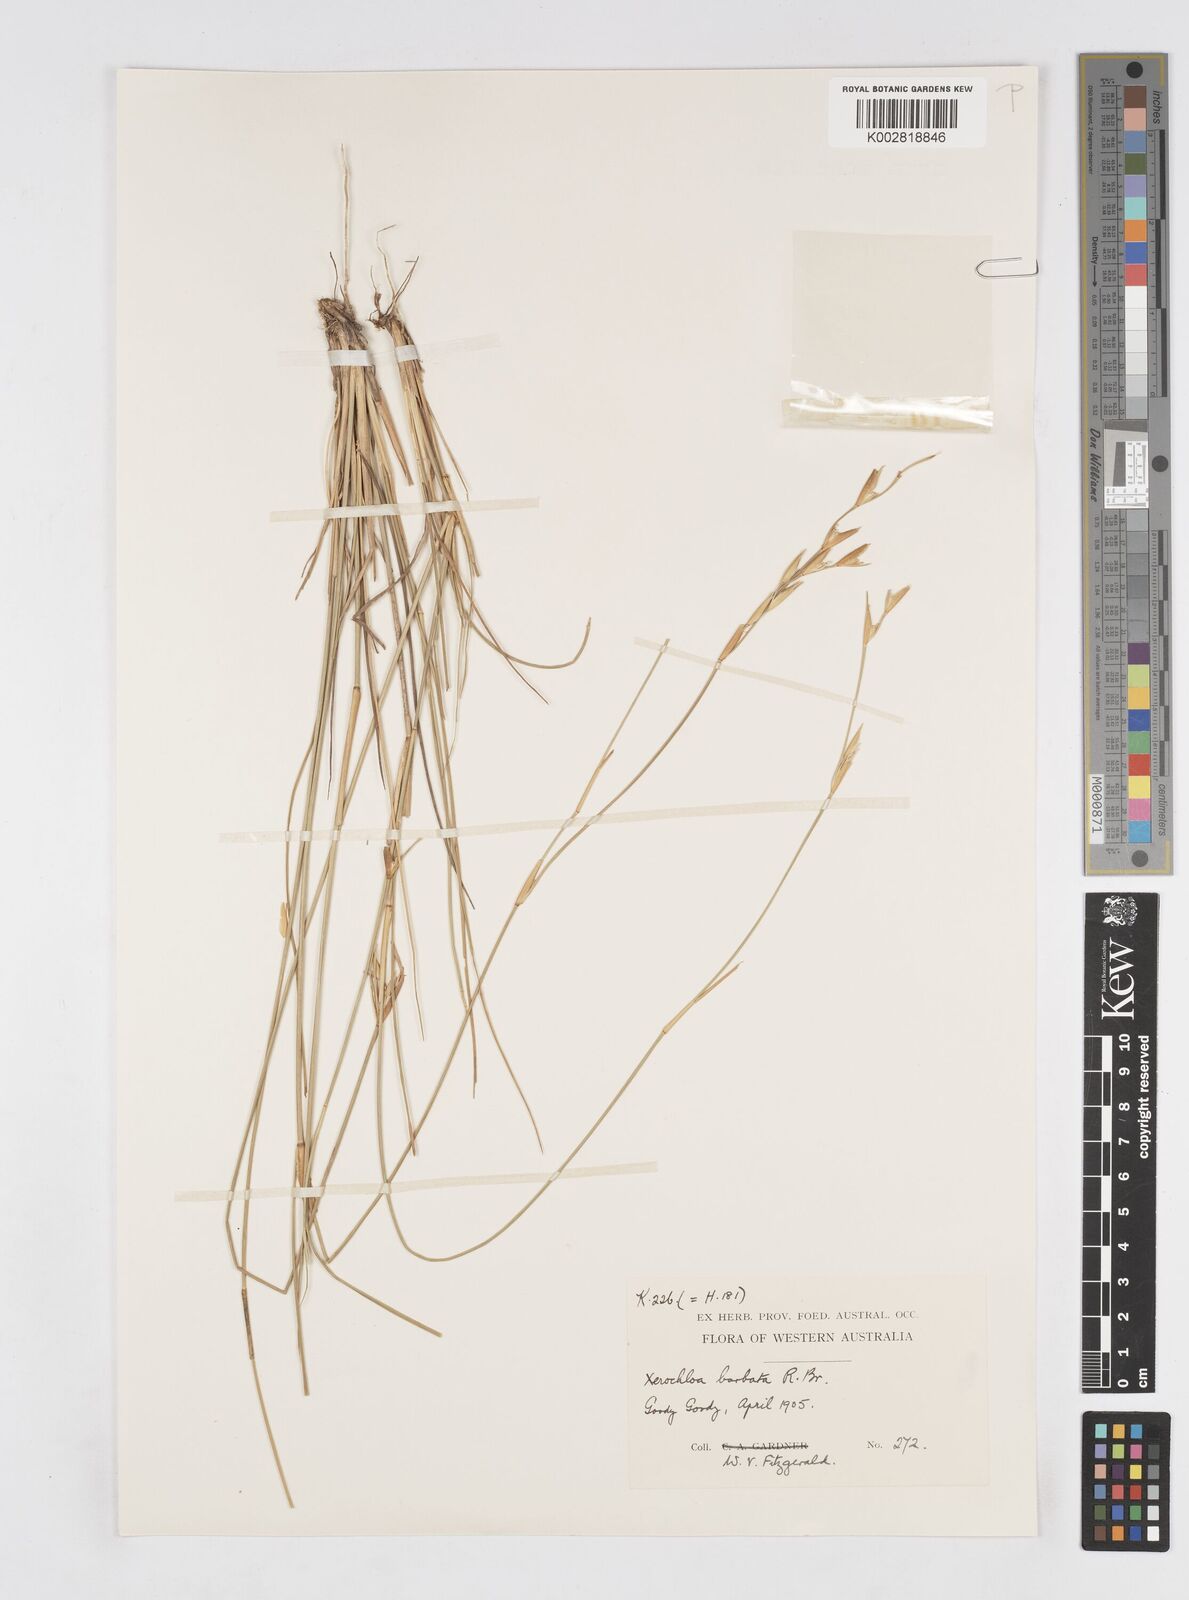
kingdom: Plantae
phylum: Tracheophyta
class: Liliopsida
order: Poales
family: Poaceae
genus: Xerochloa
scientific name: Xerochloa barbata
